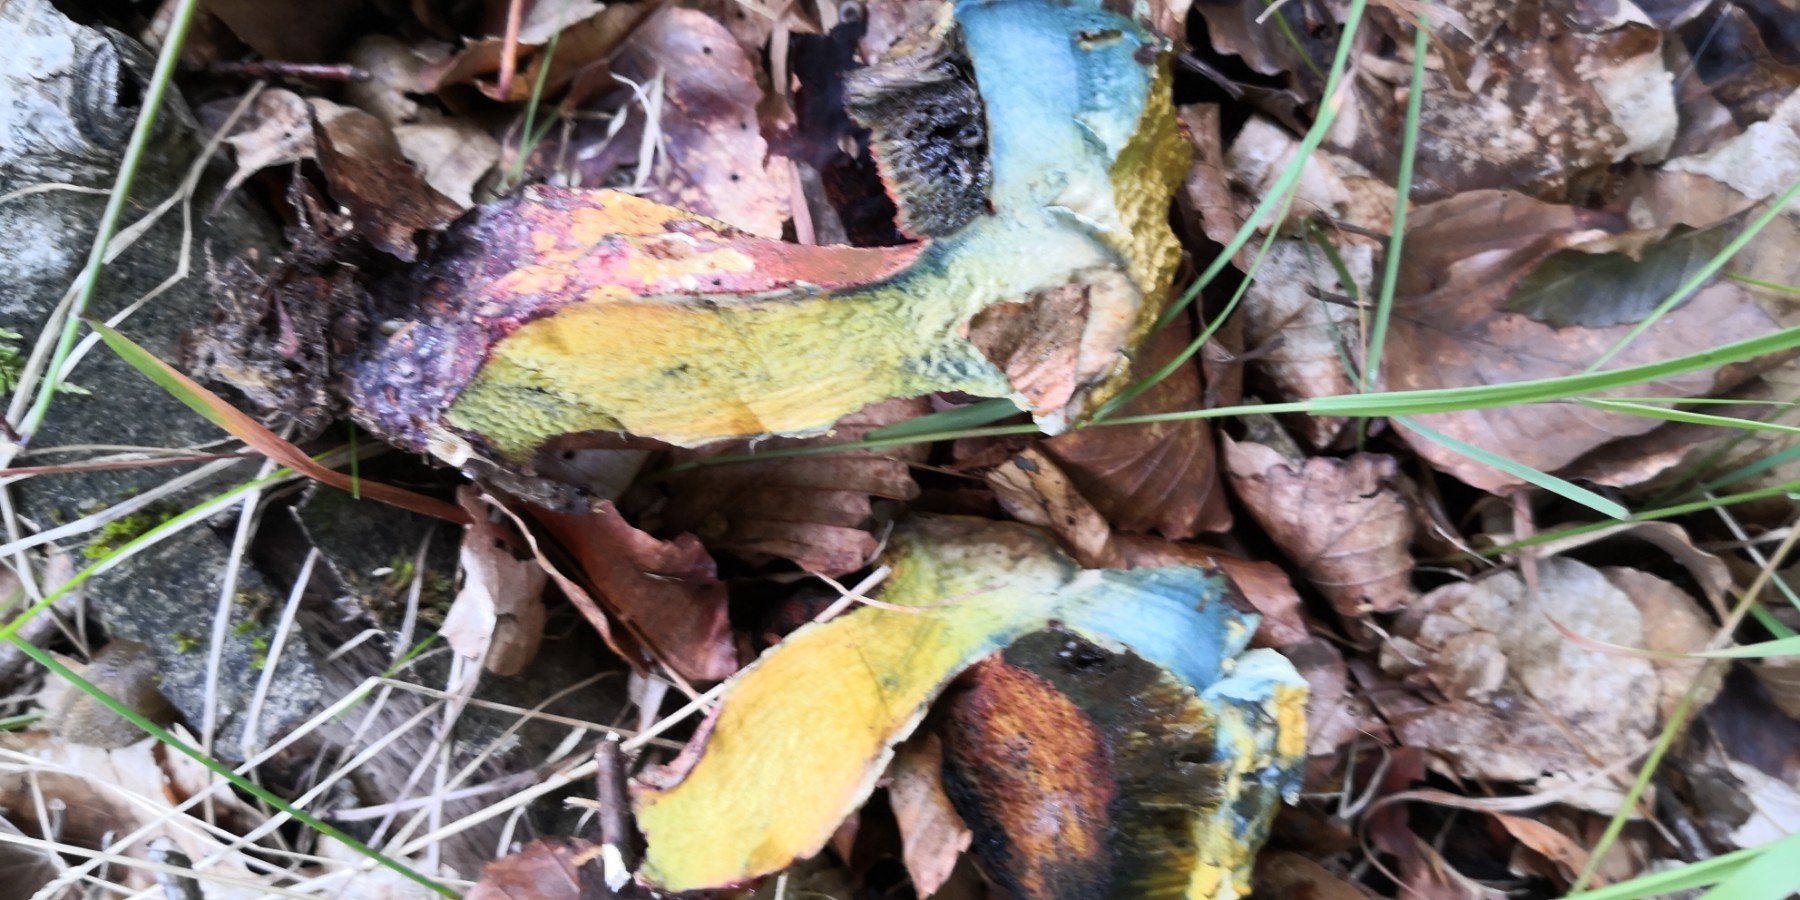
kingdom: Fungi
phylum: Basidiomycota
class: Agaricomycetes
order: Boletales
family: Boletaceae
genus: Neoboletus
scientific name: Neoboletus erythropus
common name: punktstokket indigorørhat
